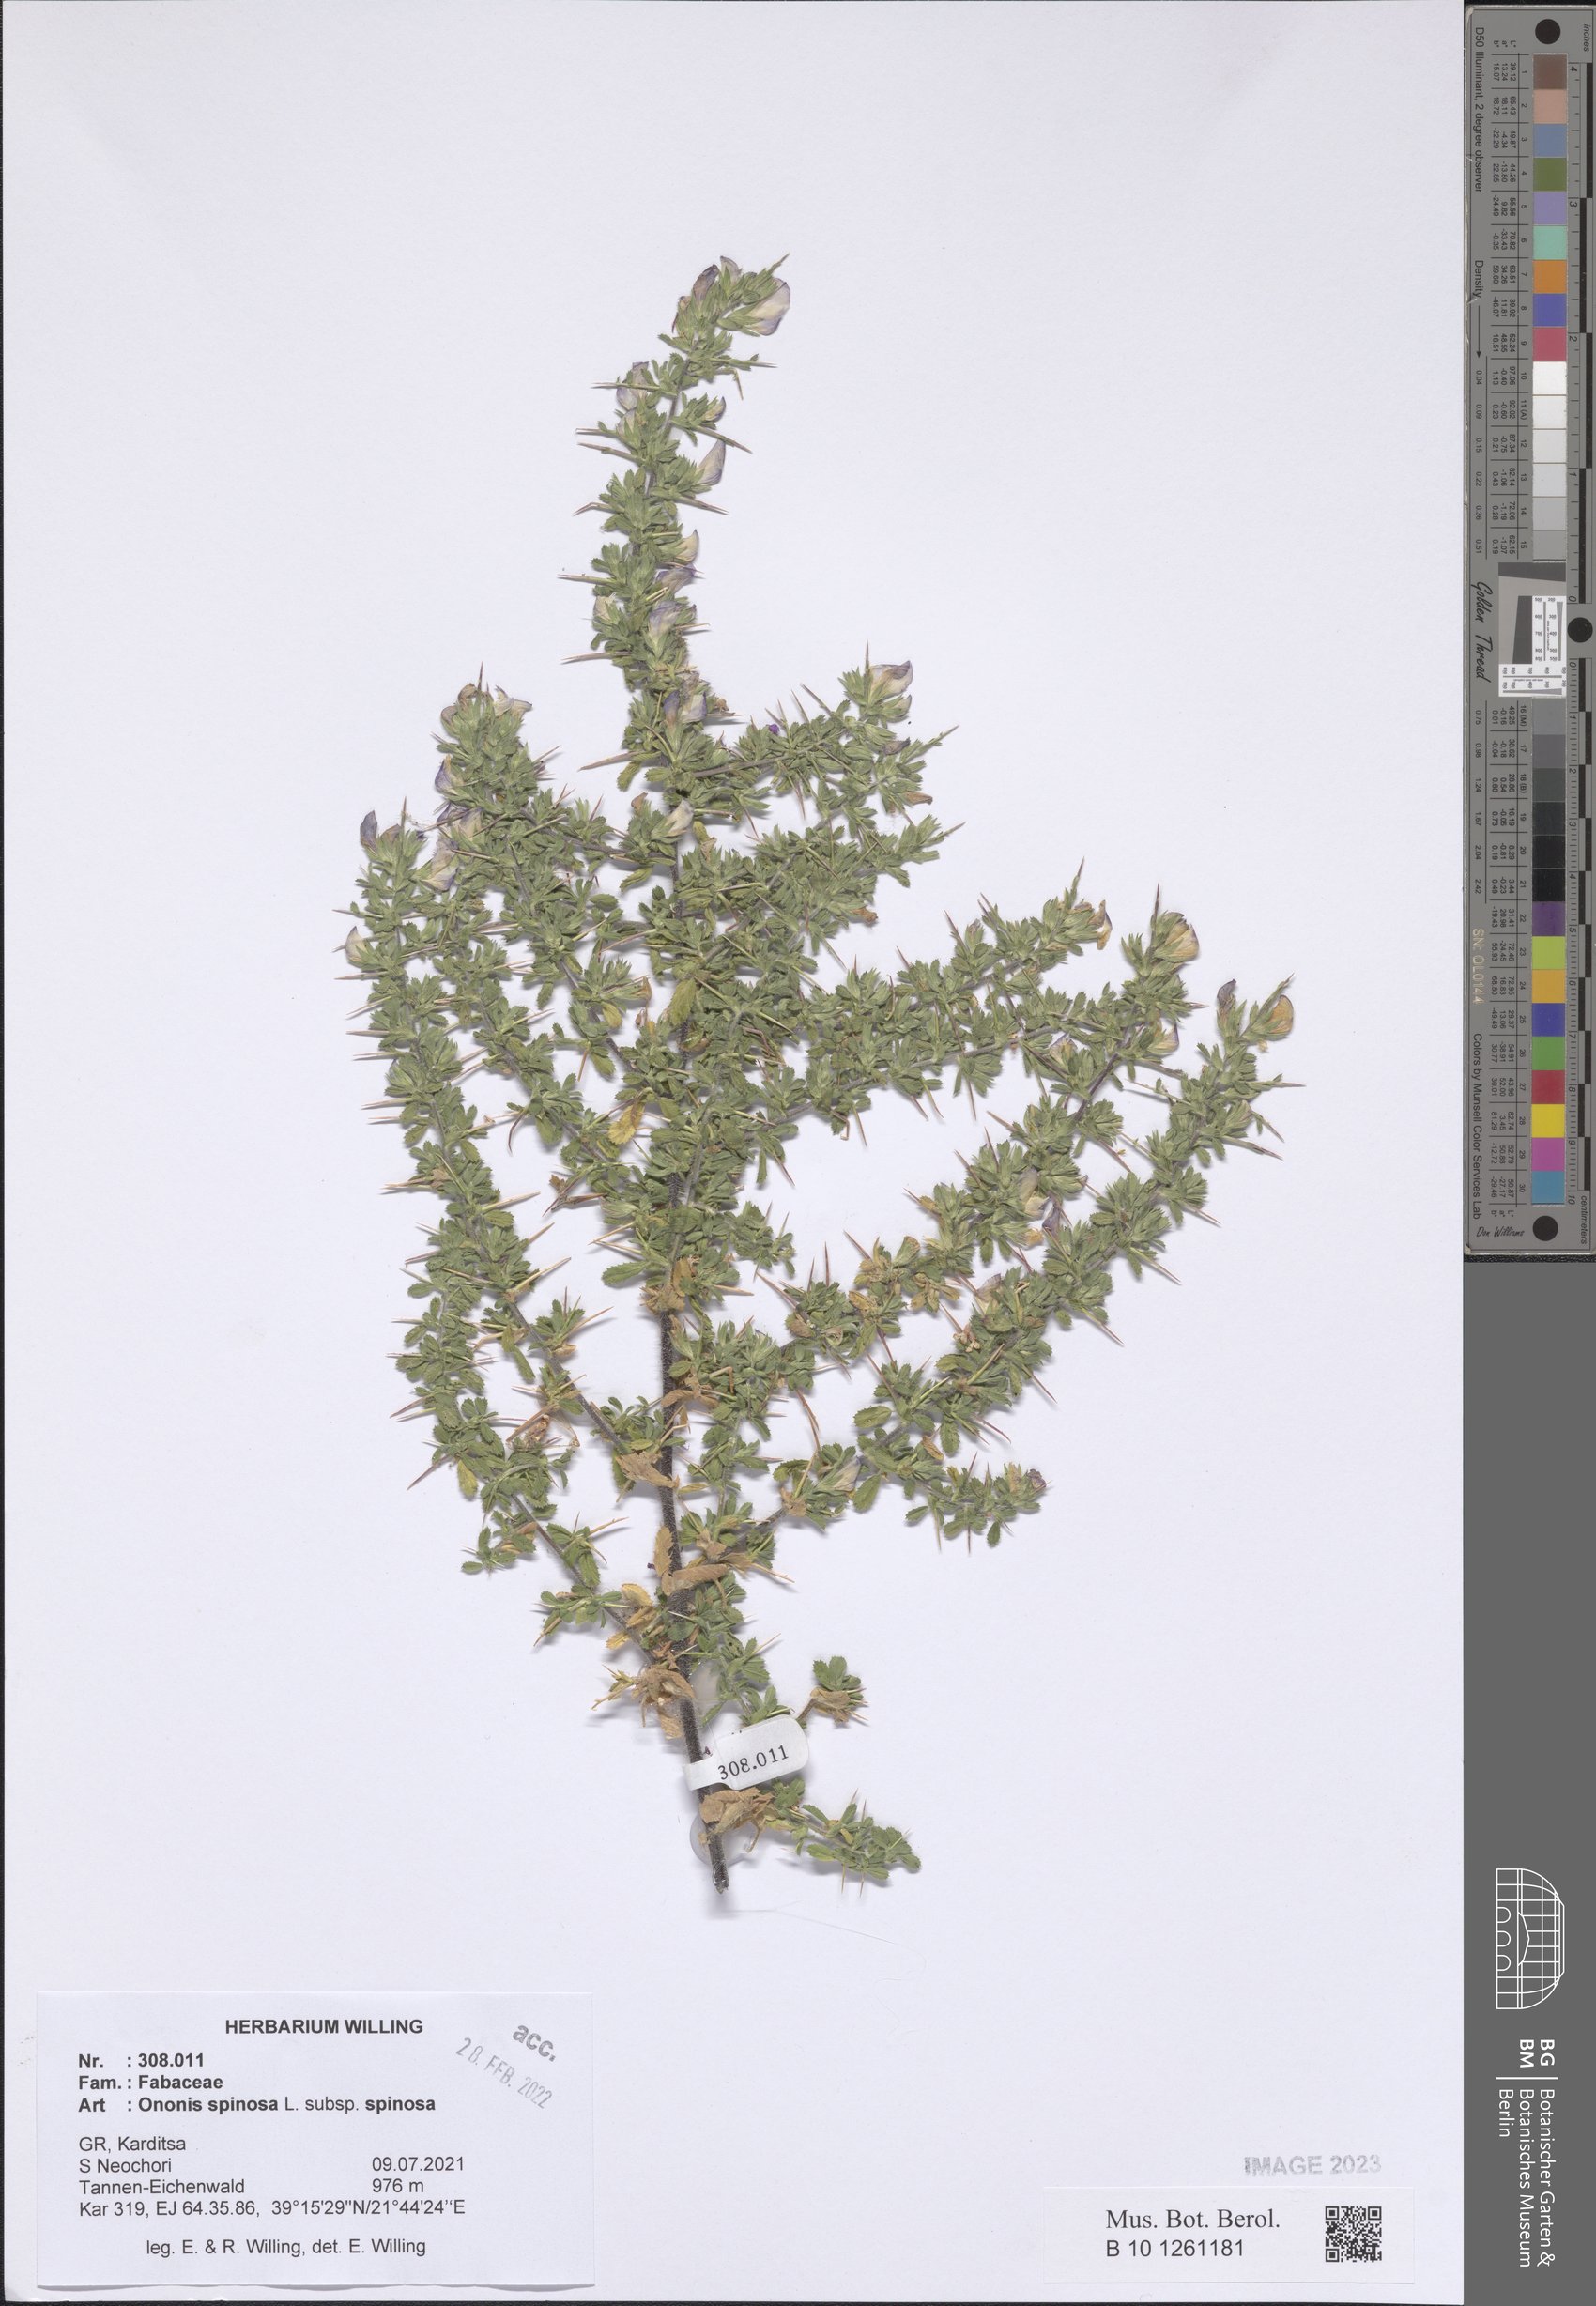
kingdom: Plantae
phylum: Tracheophyta
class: Magnoliopsida
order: Fabales
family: Fabaceae
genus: Ononis
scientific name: Ononis spinosa
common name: Spiny restharrow
